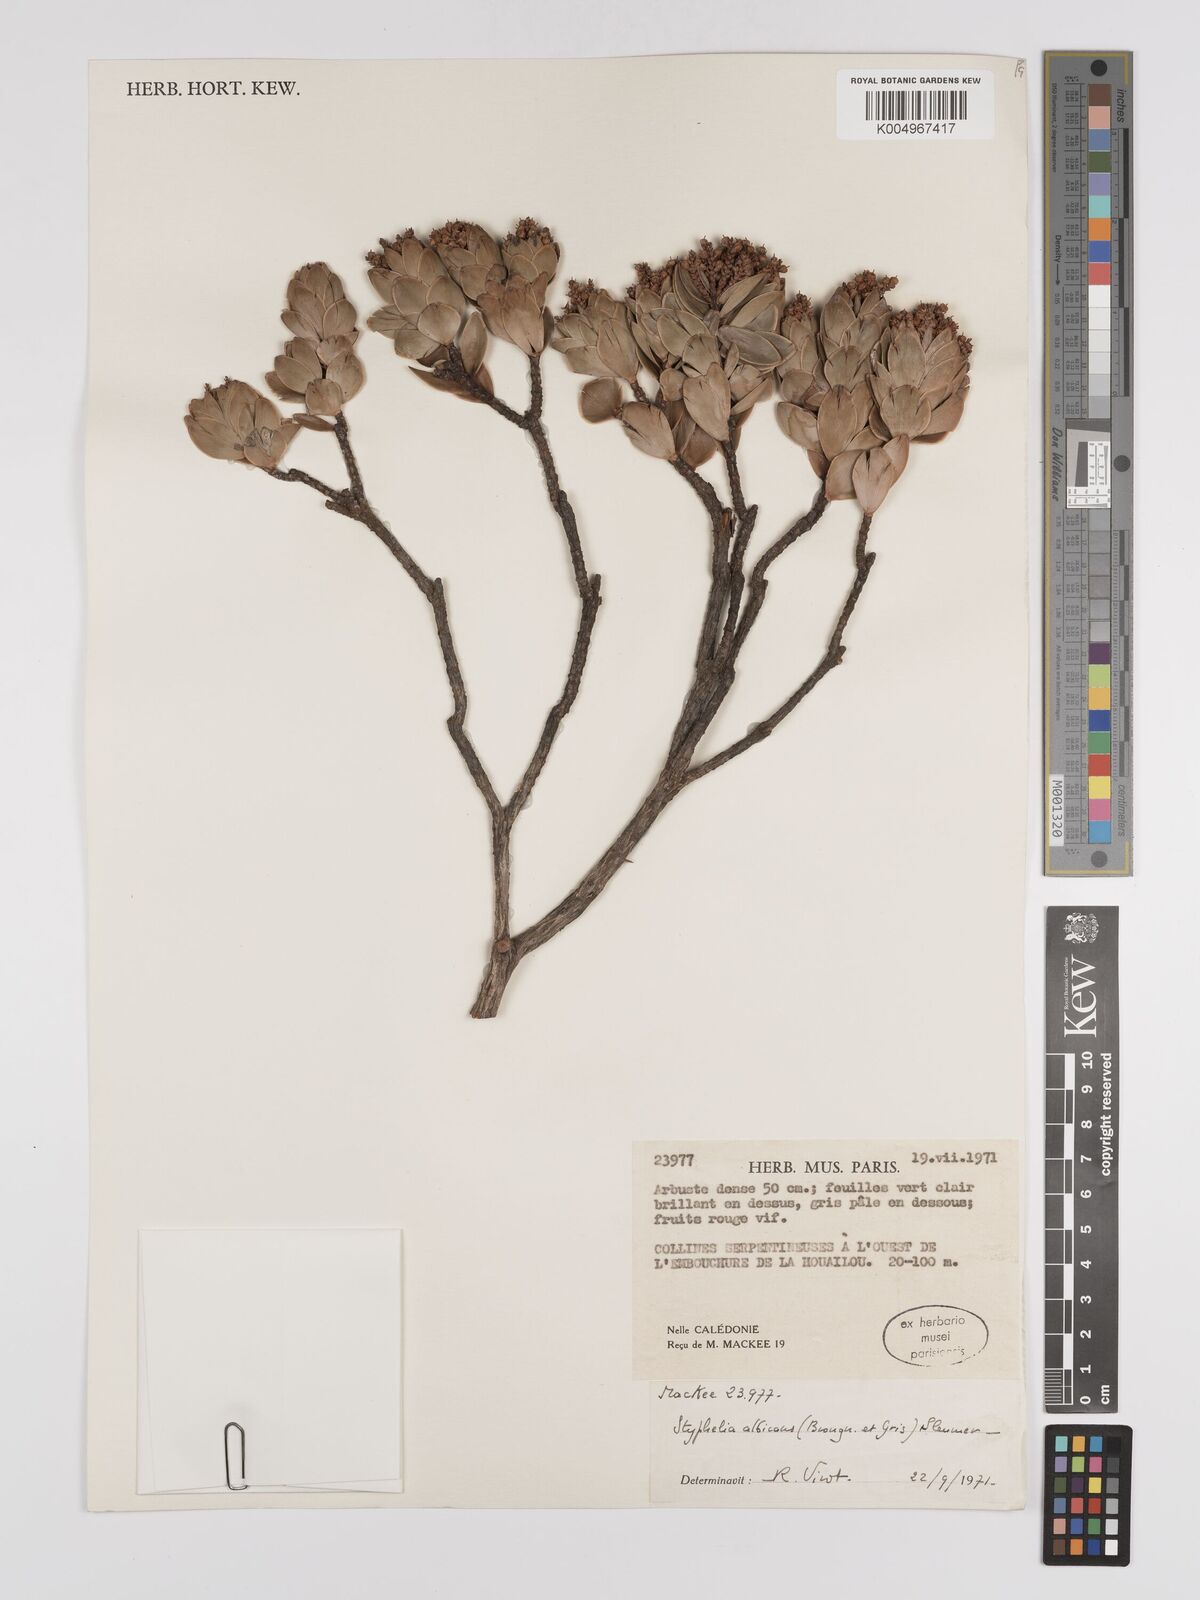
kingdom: Plantae
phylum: Tracheophyta
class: Magnoliopsida
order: Ericales
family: Ericaceae
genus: Cyathopsis
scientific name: Cyathopsis albicans
